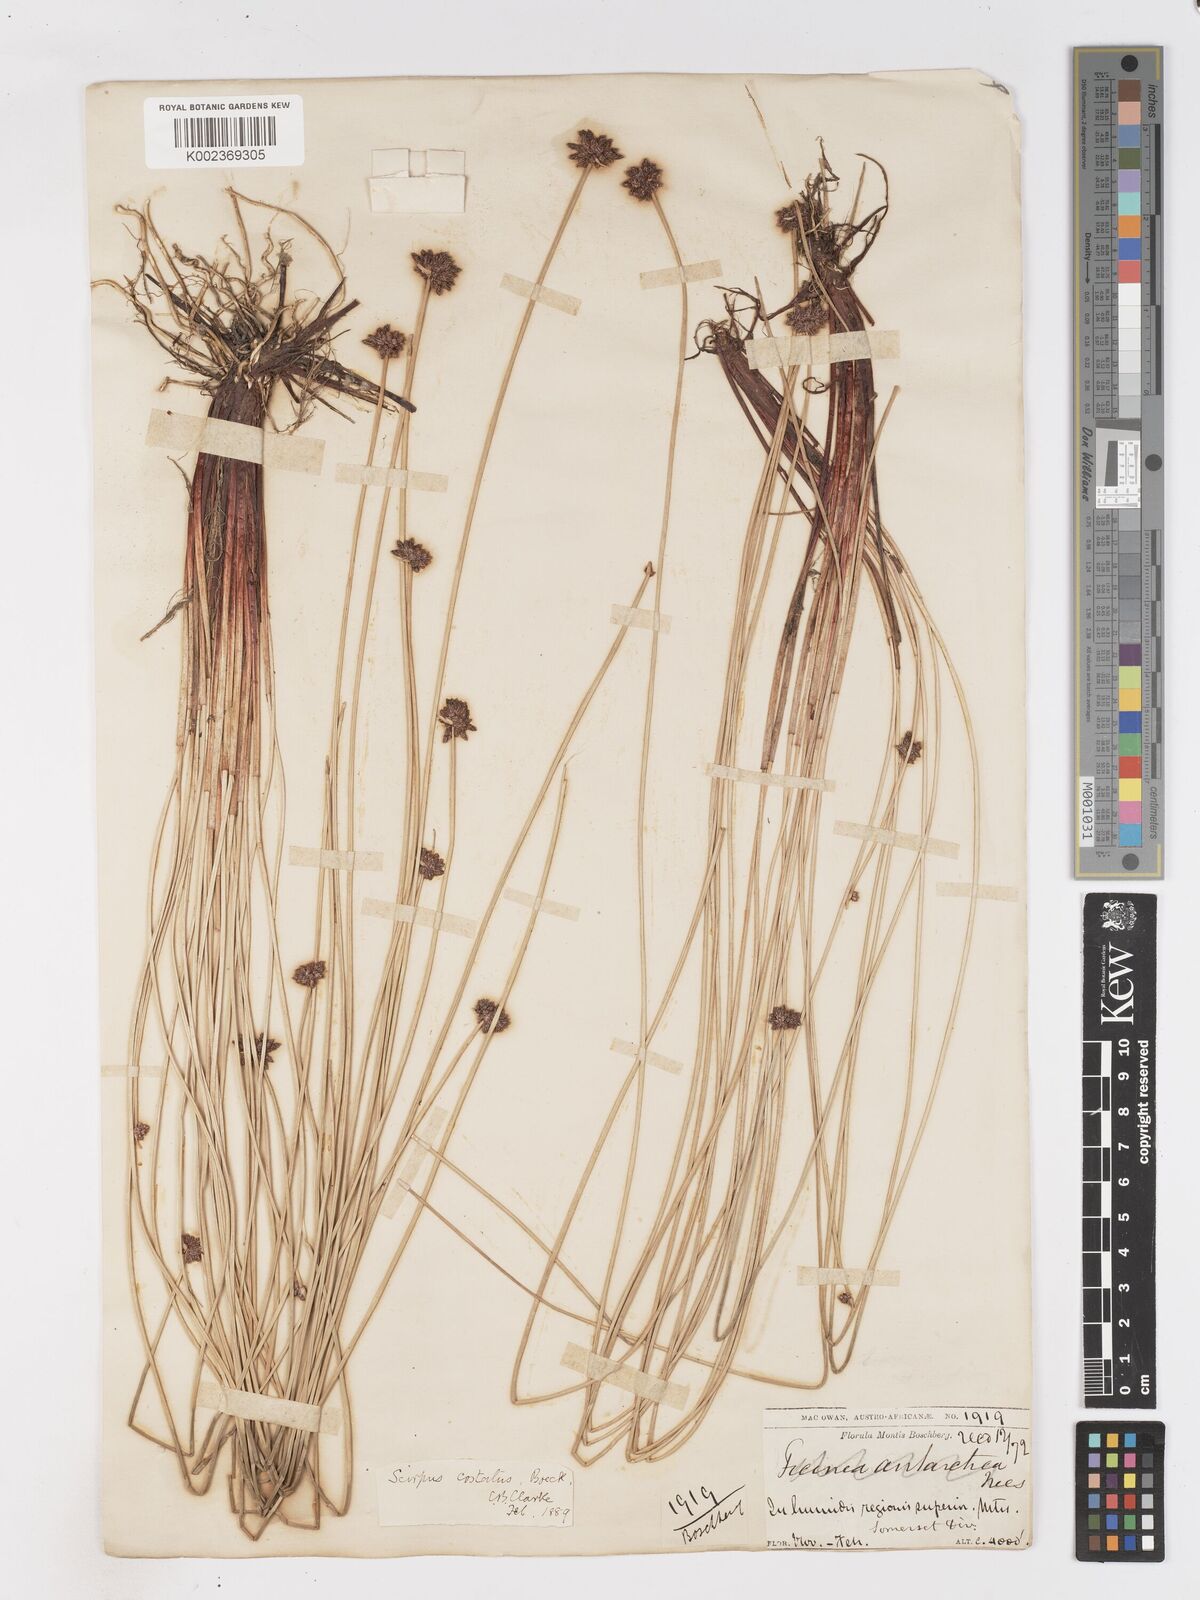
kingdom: Plantae
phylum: Tracheophyta
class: Liliopsida
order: Poales
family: Cyperaceae
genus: Isolepis
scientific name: Isolepis costata
